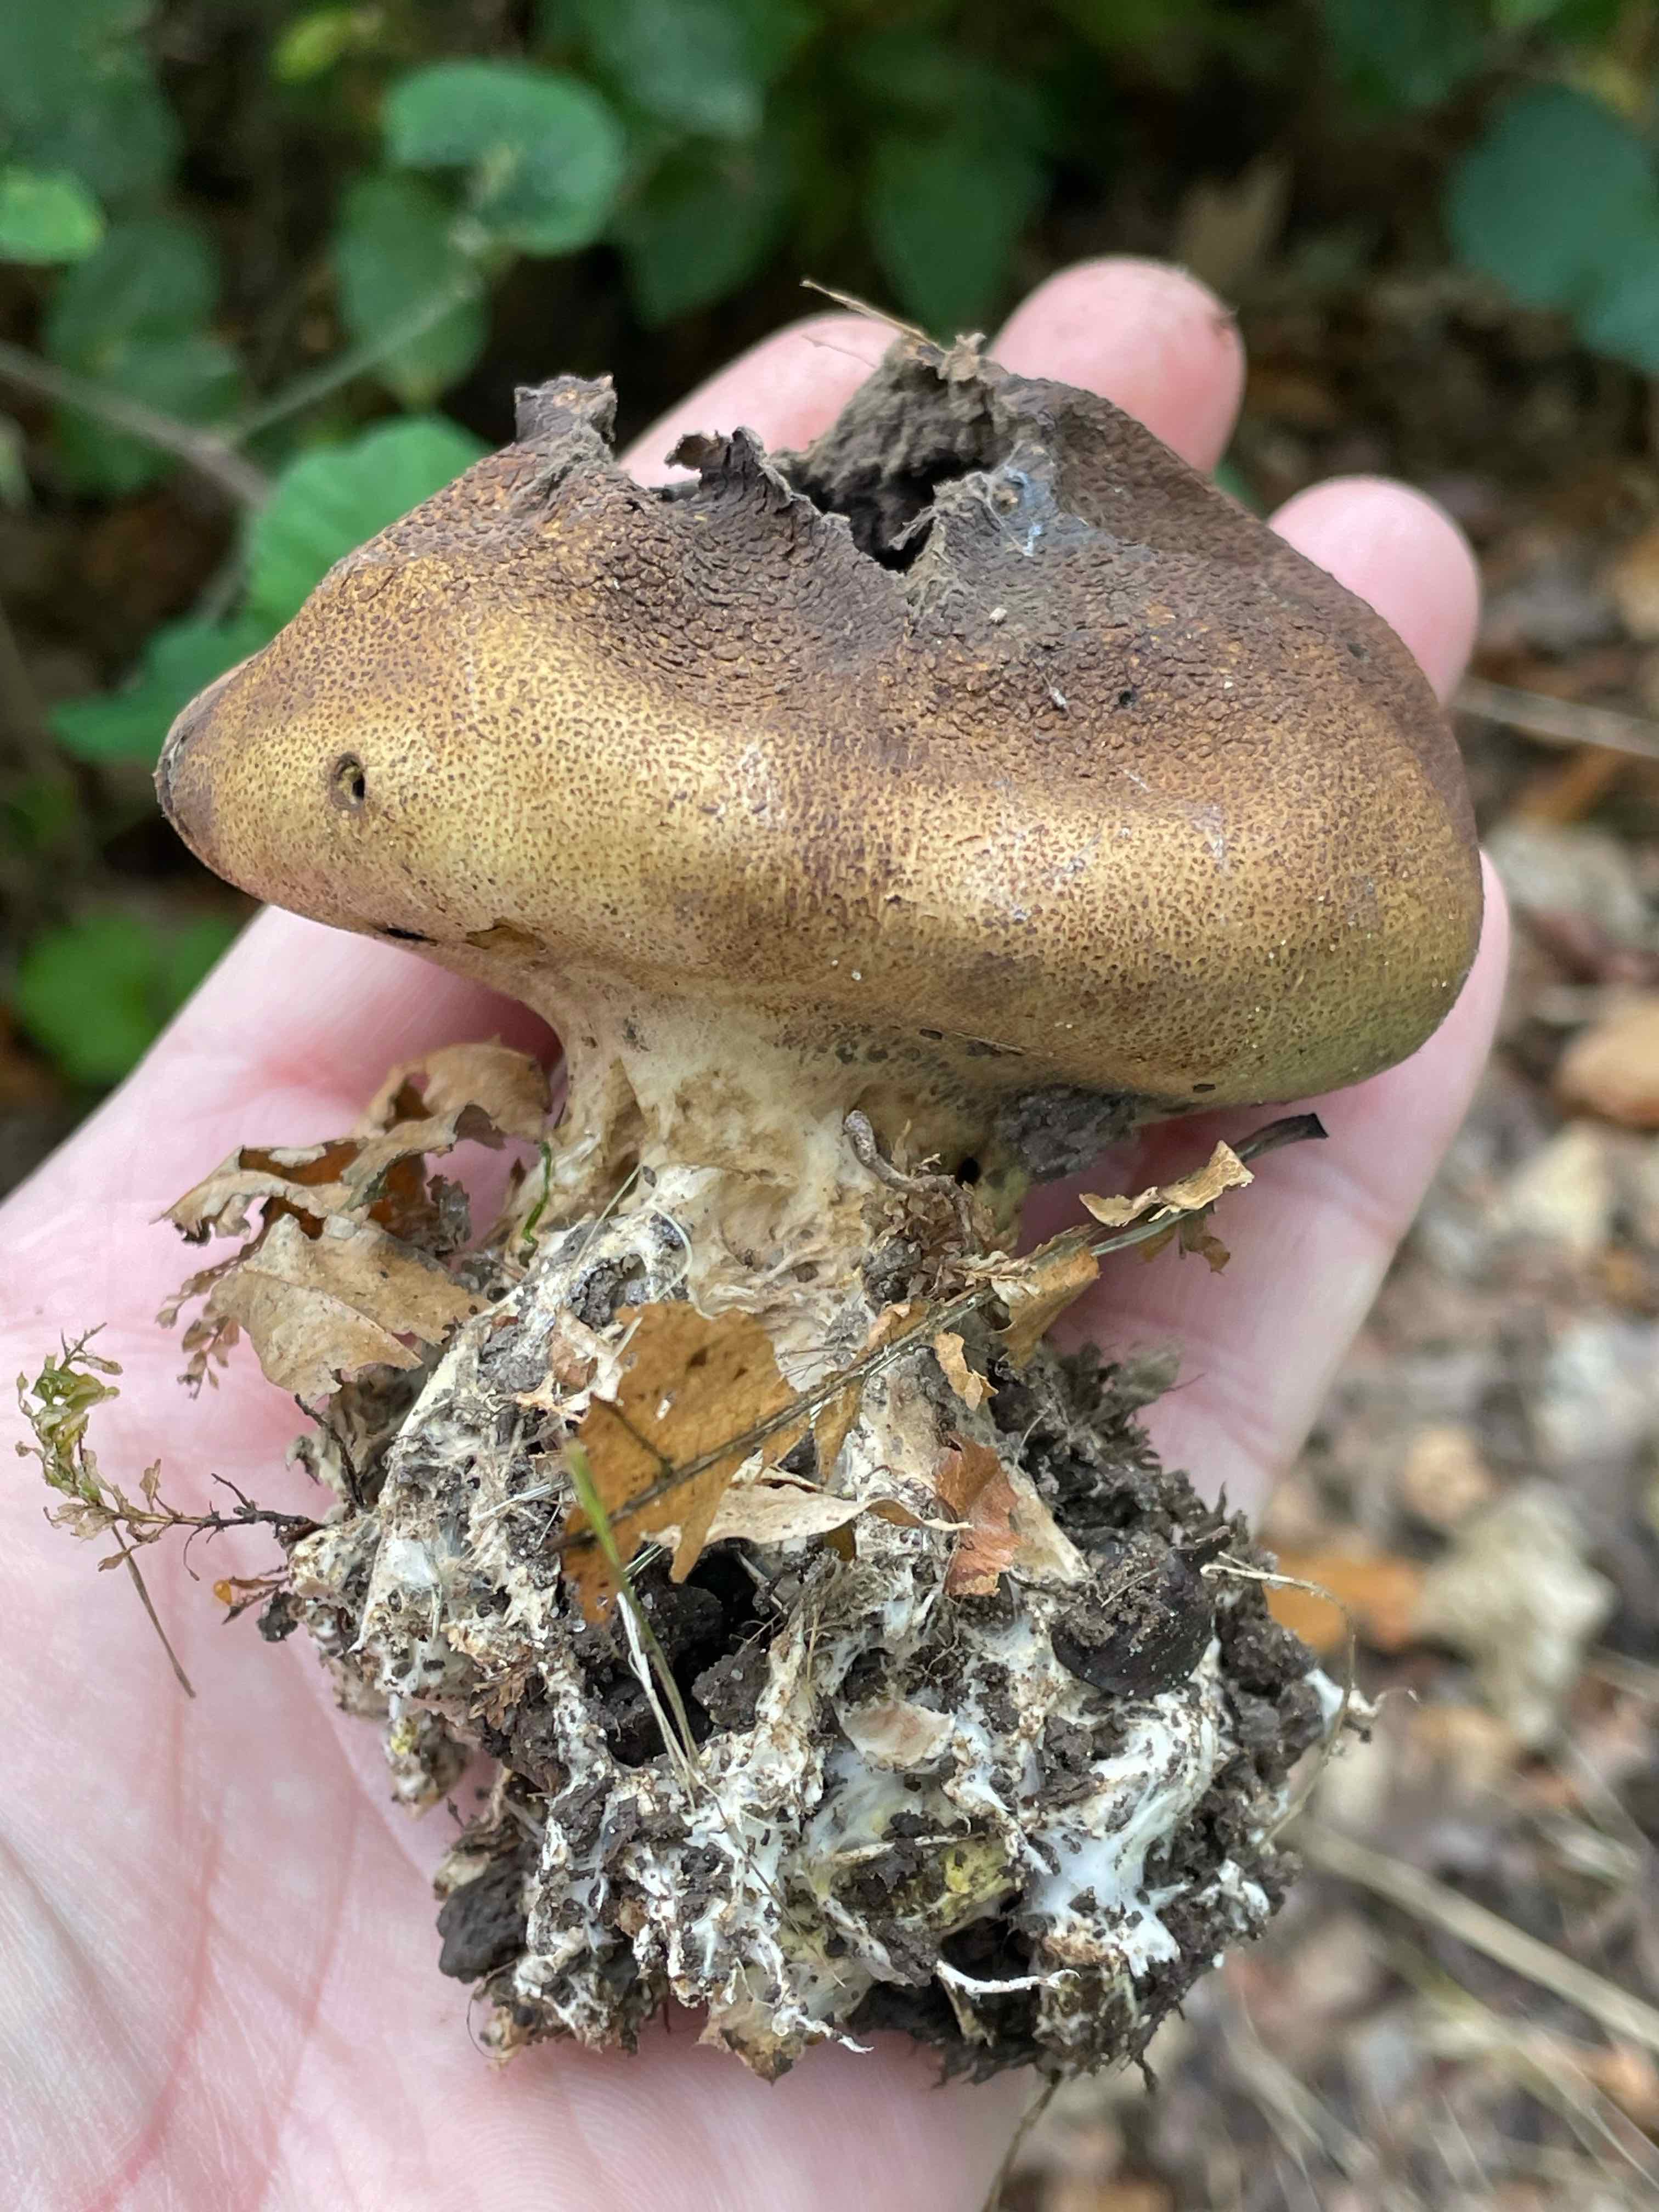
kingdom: Fungi
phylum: Basidiomycota
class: Agaricomycetes
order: Boletales
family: Sclerodermataceae
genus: Scleroderma
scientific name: Scleroderma verrucosum
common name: stilket bruskbold
